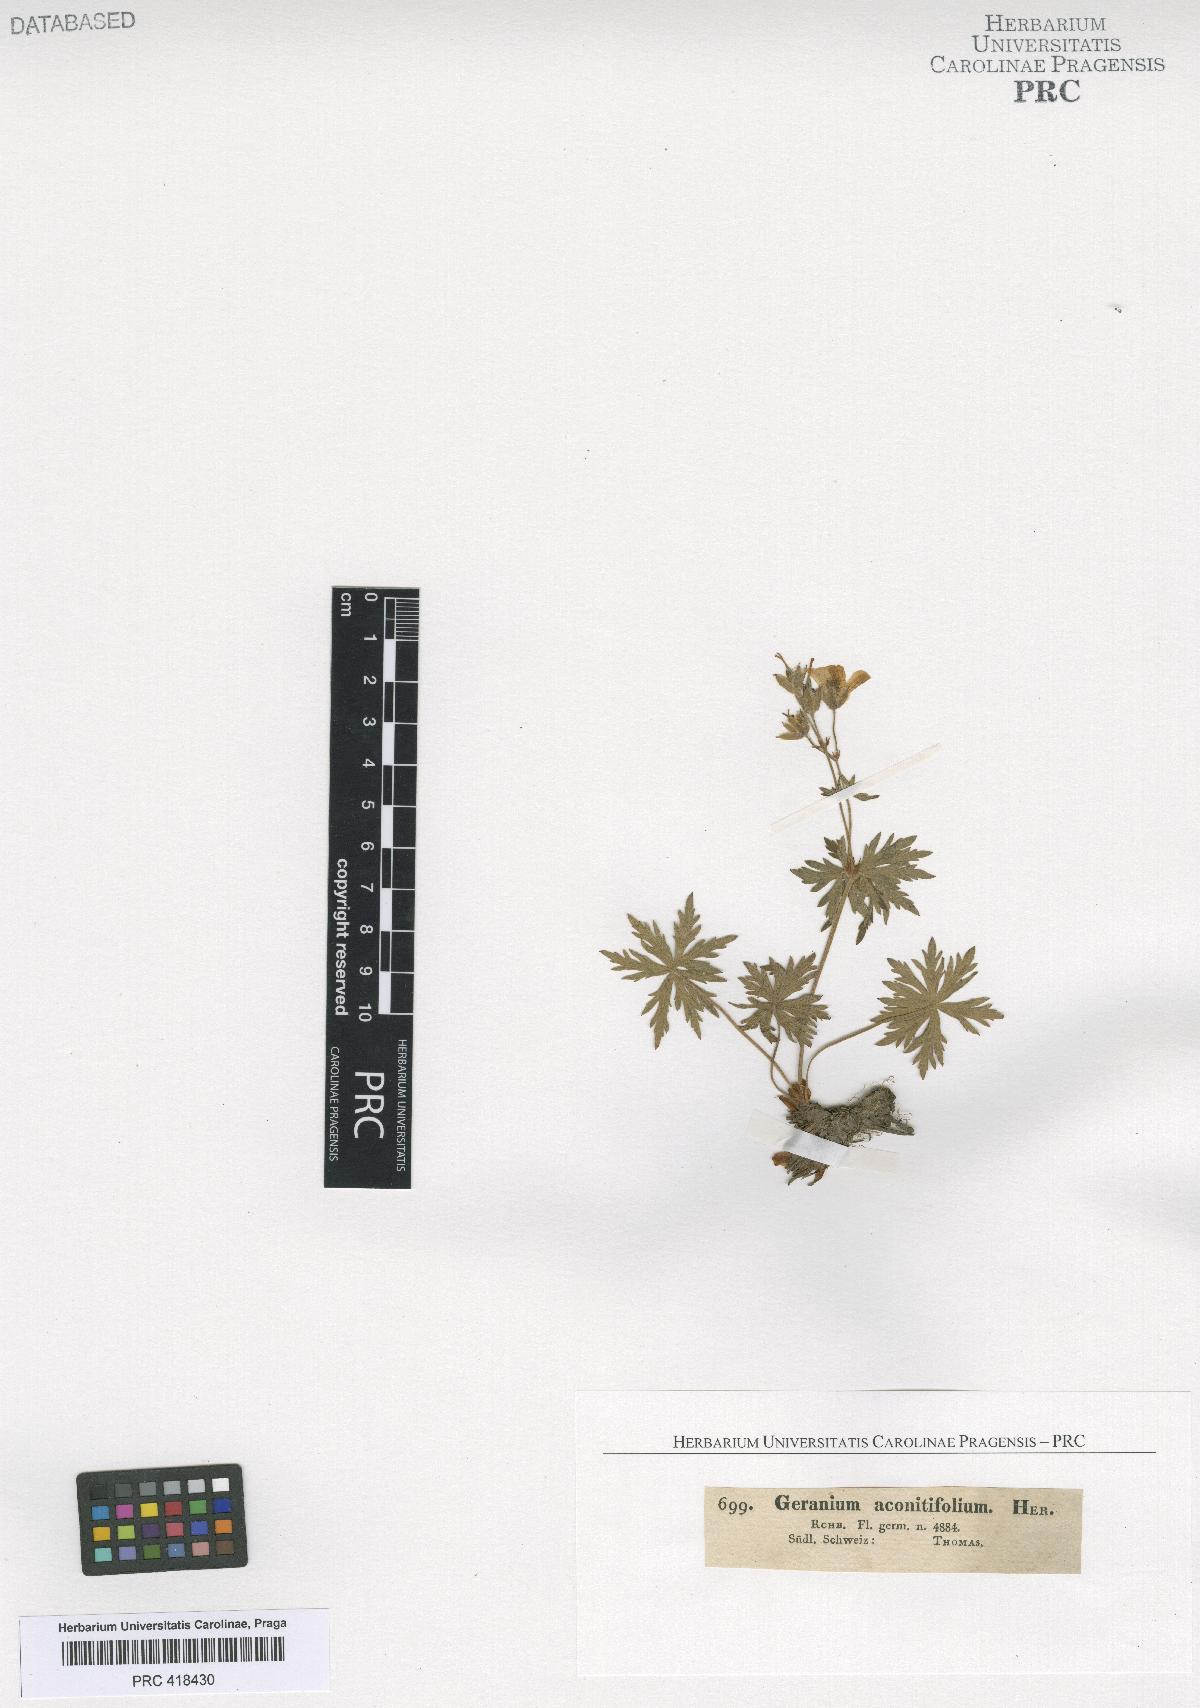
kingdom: Plantae
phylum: Tracheophyta
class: Magnoliopsida
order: Geraniales
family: Geraniaceae
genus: Geranium
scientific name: Geranium rivulare
